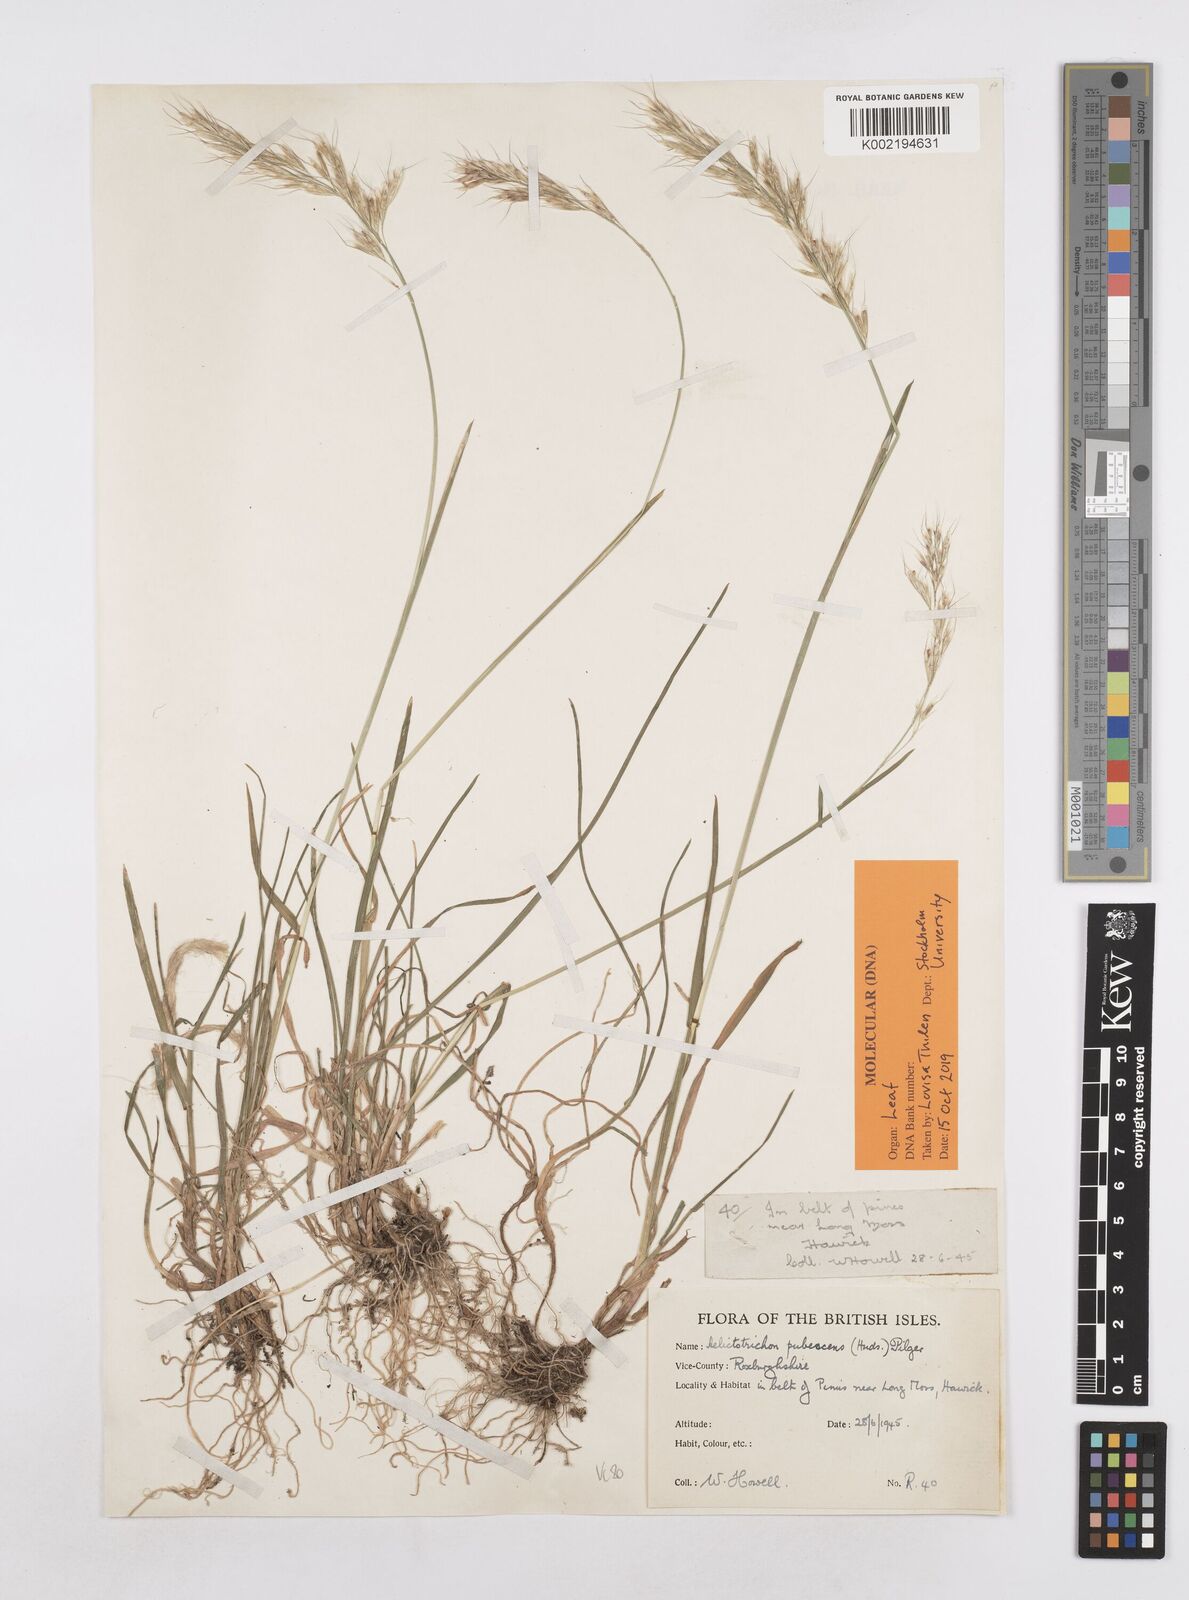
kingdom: Plantae
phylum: Tracheophyta
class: Liliopsida
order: Poales
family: Poaceae
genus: Avenula
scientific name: Avenula pubescens
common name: Downy alpine oatgrass
